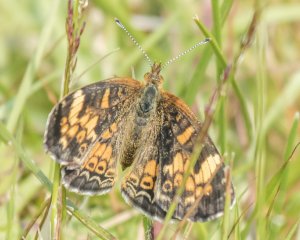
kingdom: Animalia
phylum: Arthropoda
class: Insecta
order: Lepidoptera
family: Nymphalidae
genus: Phyciodes
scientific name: Phyciodes tharos
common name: Northern Crescent
